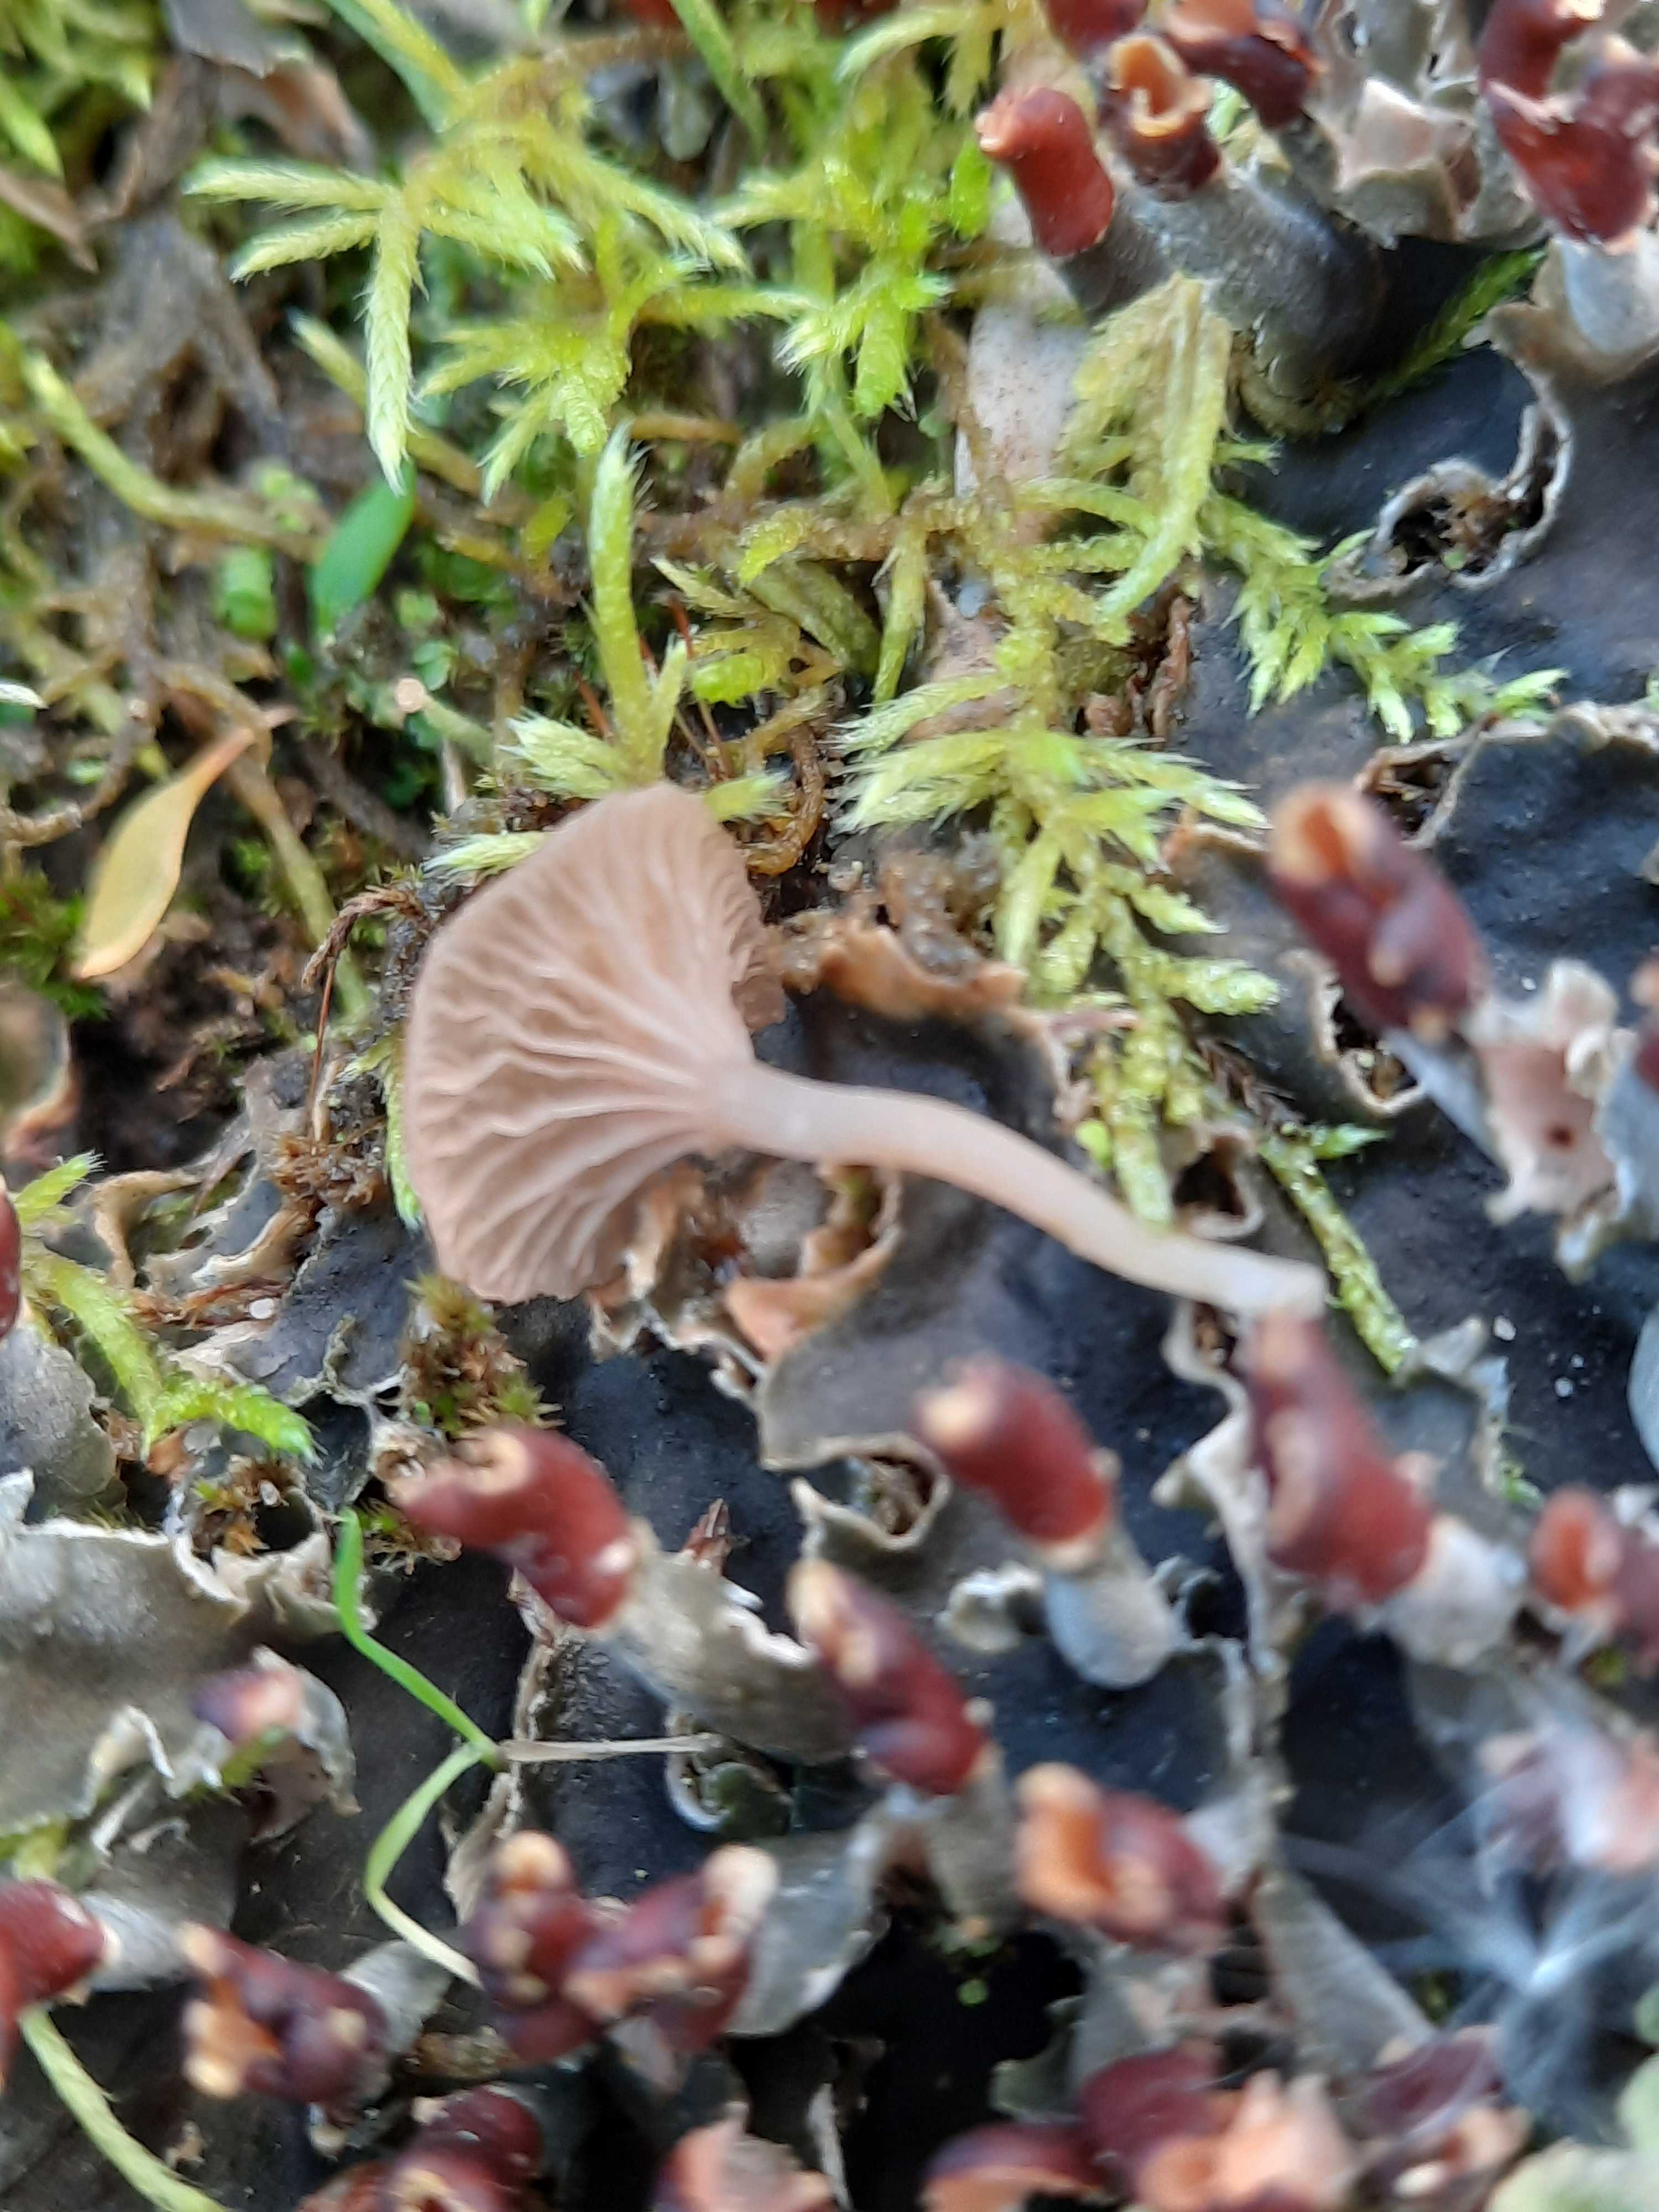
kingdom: Fungi
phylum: Basidiomycota
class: Agaricomycetes
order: Agaricales
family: Hygrophoraceae
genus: Arrhenia
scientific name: Arrhenia peltigerina
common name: skjoldlav-fontænehat
